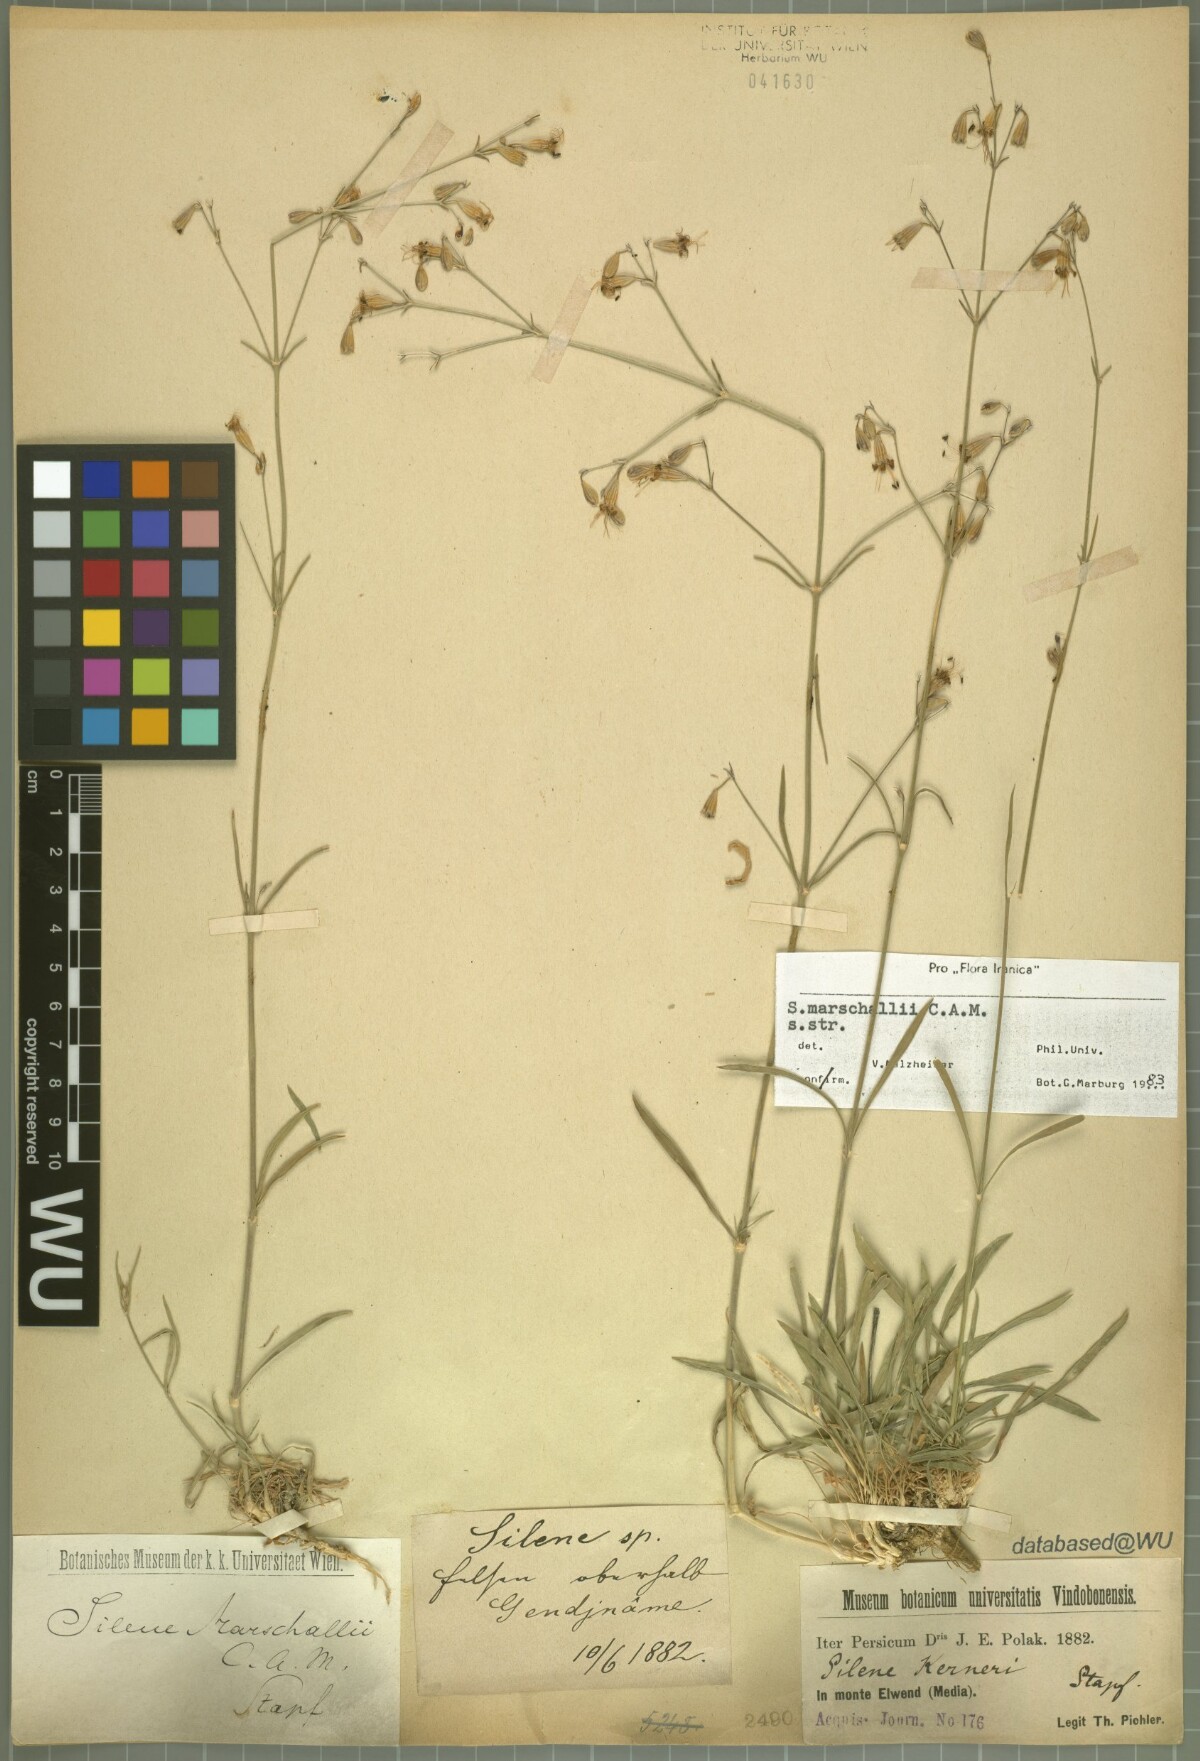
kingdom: Plantae
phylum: Tracheophyta
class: Magnoliopsida
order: Caryophyllales
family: Caryophyllaceae
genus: Silene
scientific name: Silene kerneri
